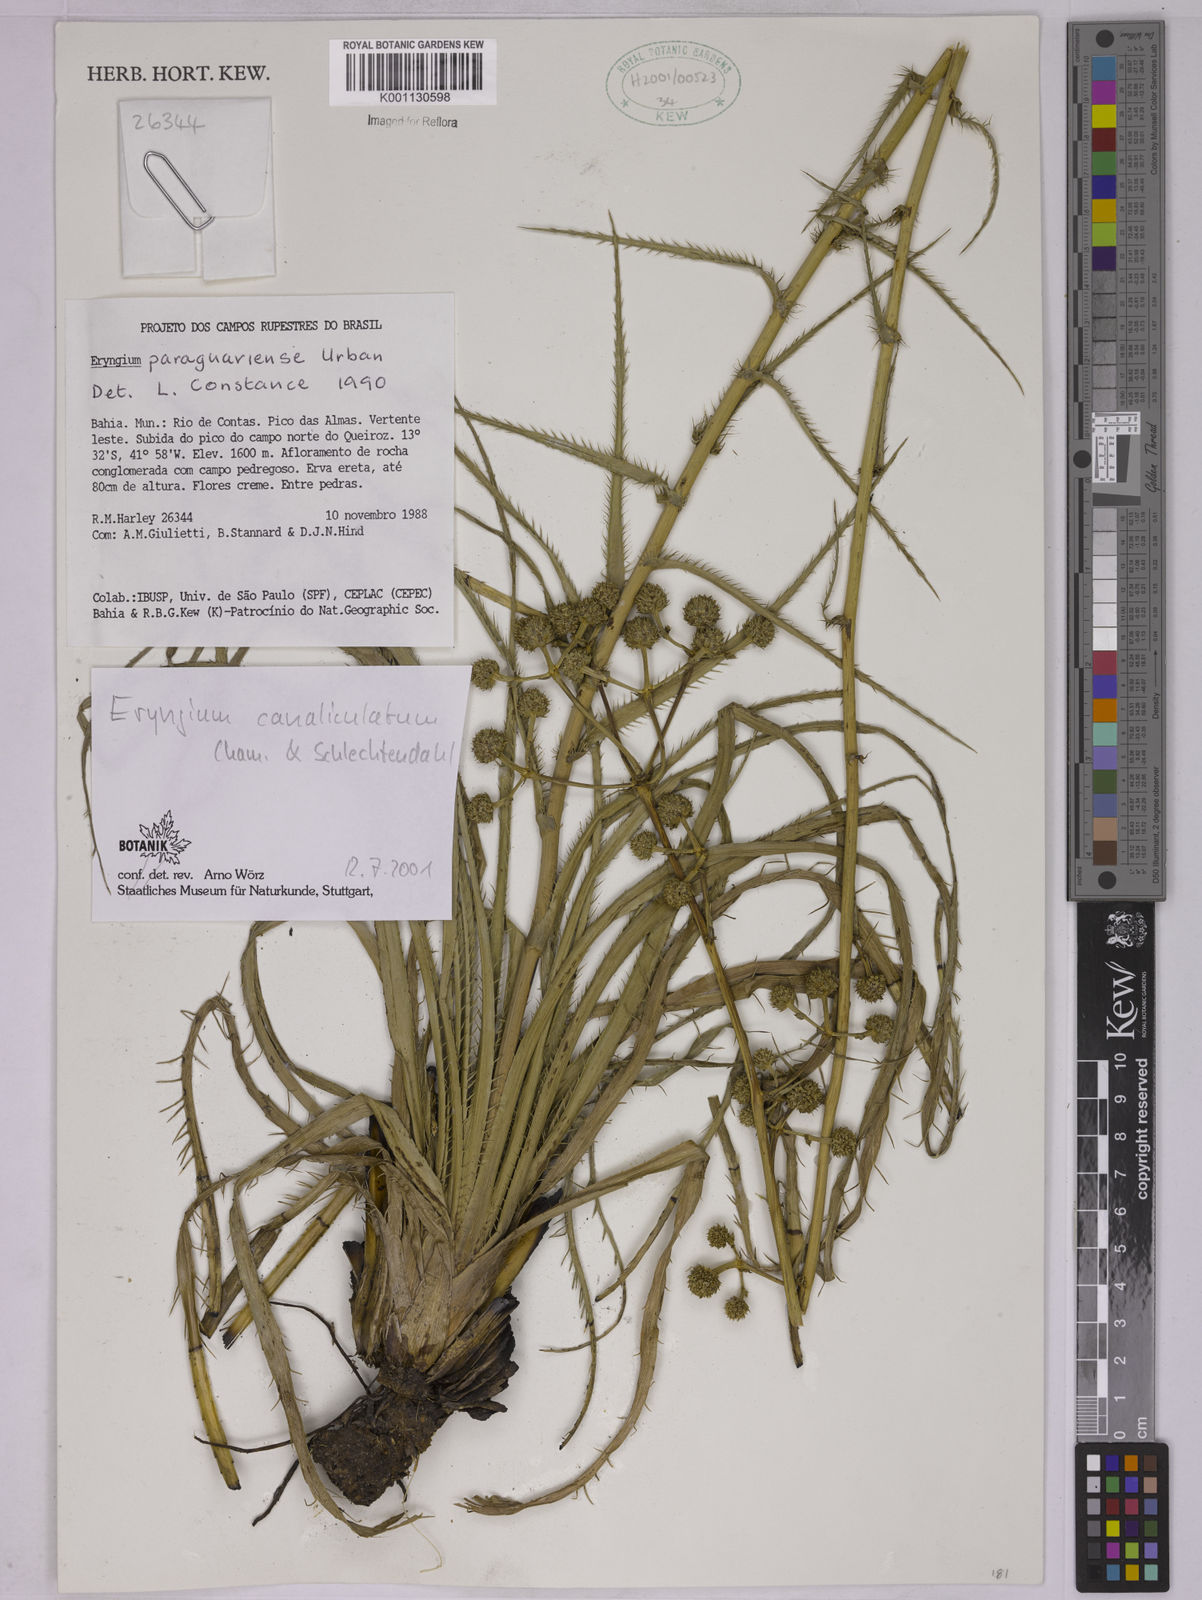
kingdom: Plantae
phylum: Tracheophyta
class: Magnoliopsida
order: Apiales
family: Apiaceae
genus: Eryngium
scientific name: Eryngium canaliculatum
